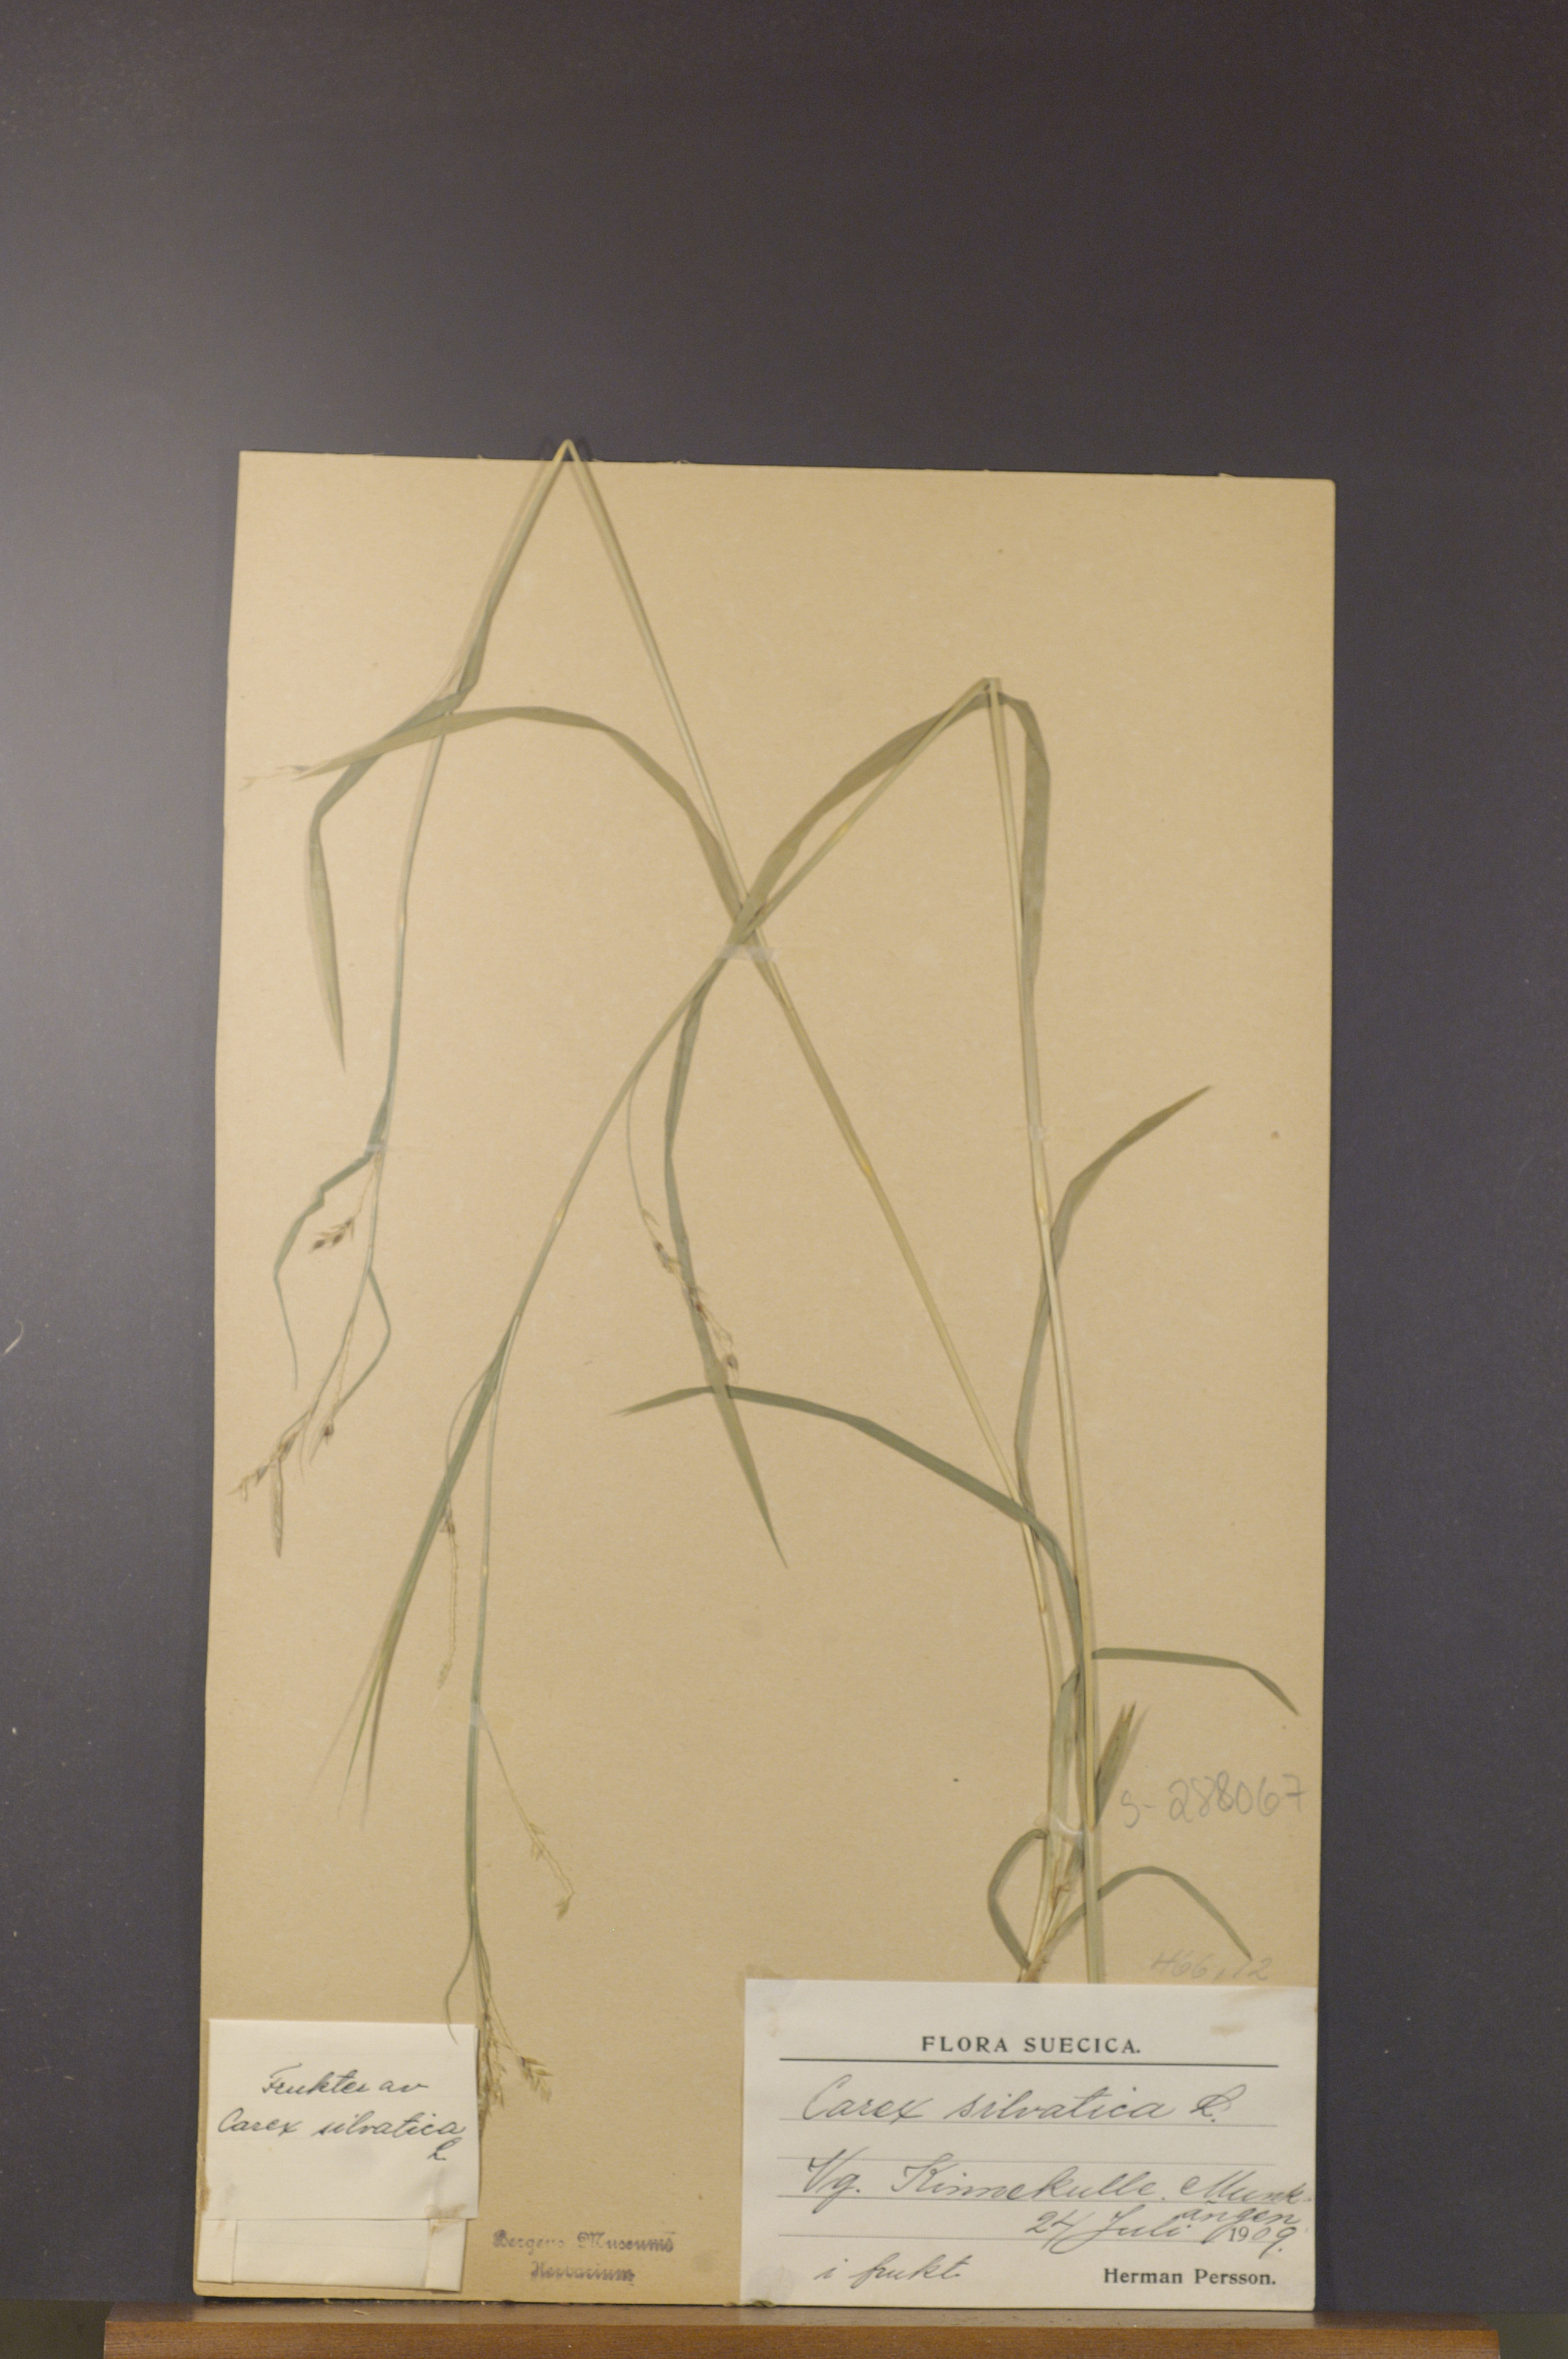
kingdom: Plantae
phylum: Tracheophyta
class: Liliopsida
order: Poales
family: Cyperaceae
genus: Carex
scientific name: Carex sylvatica
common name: Wood-sedge
